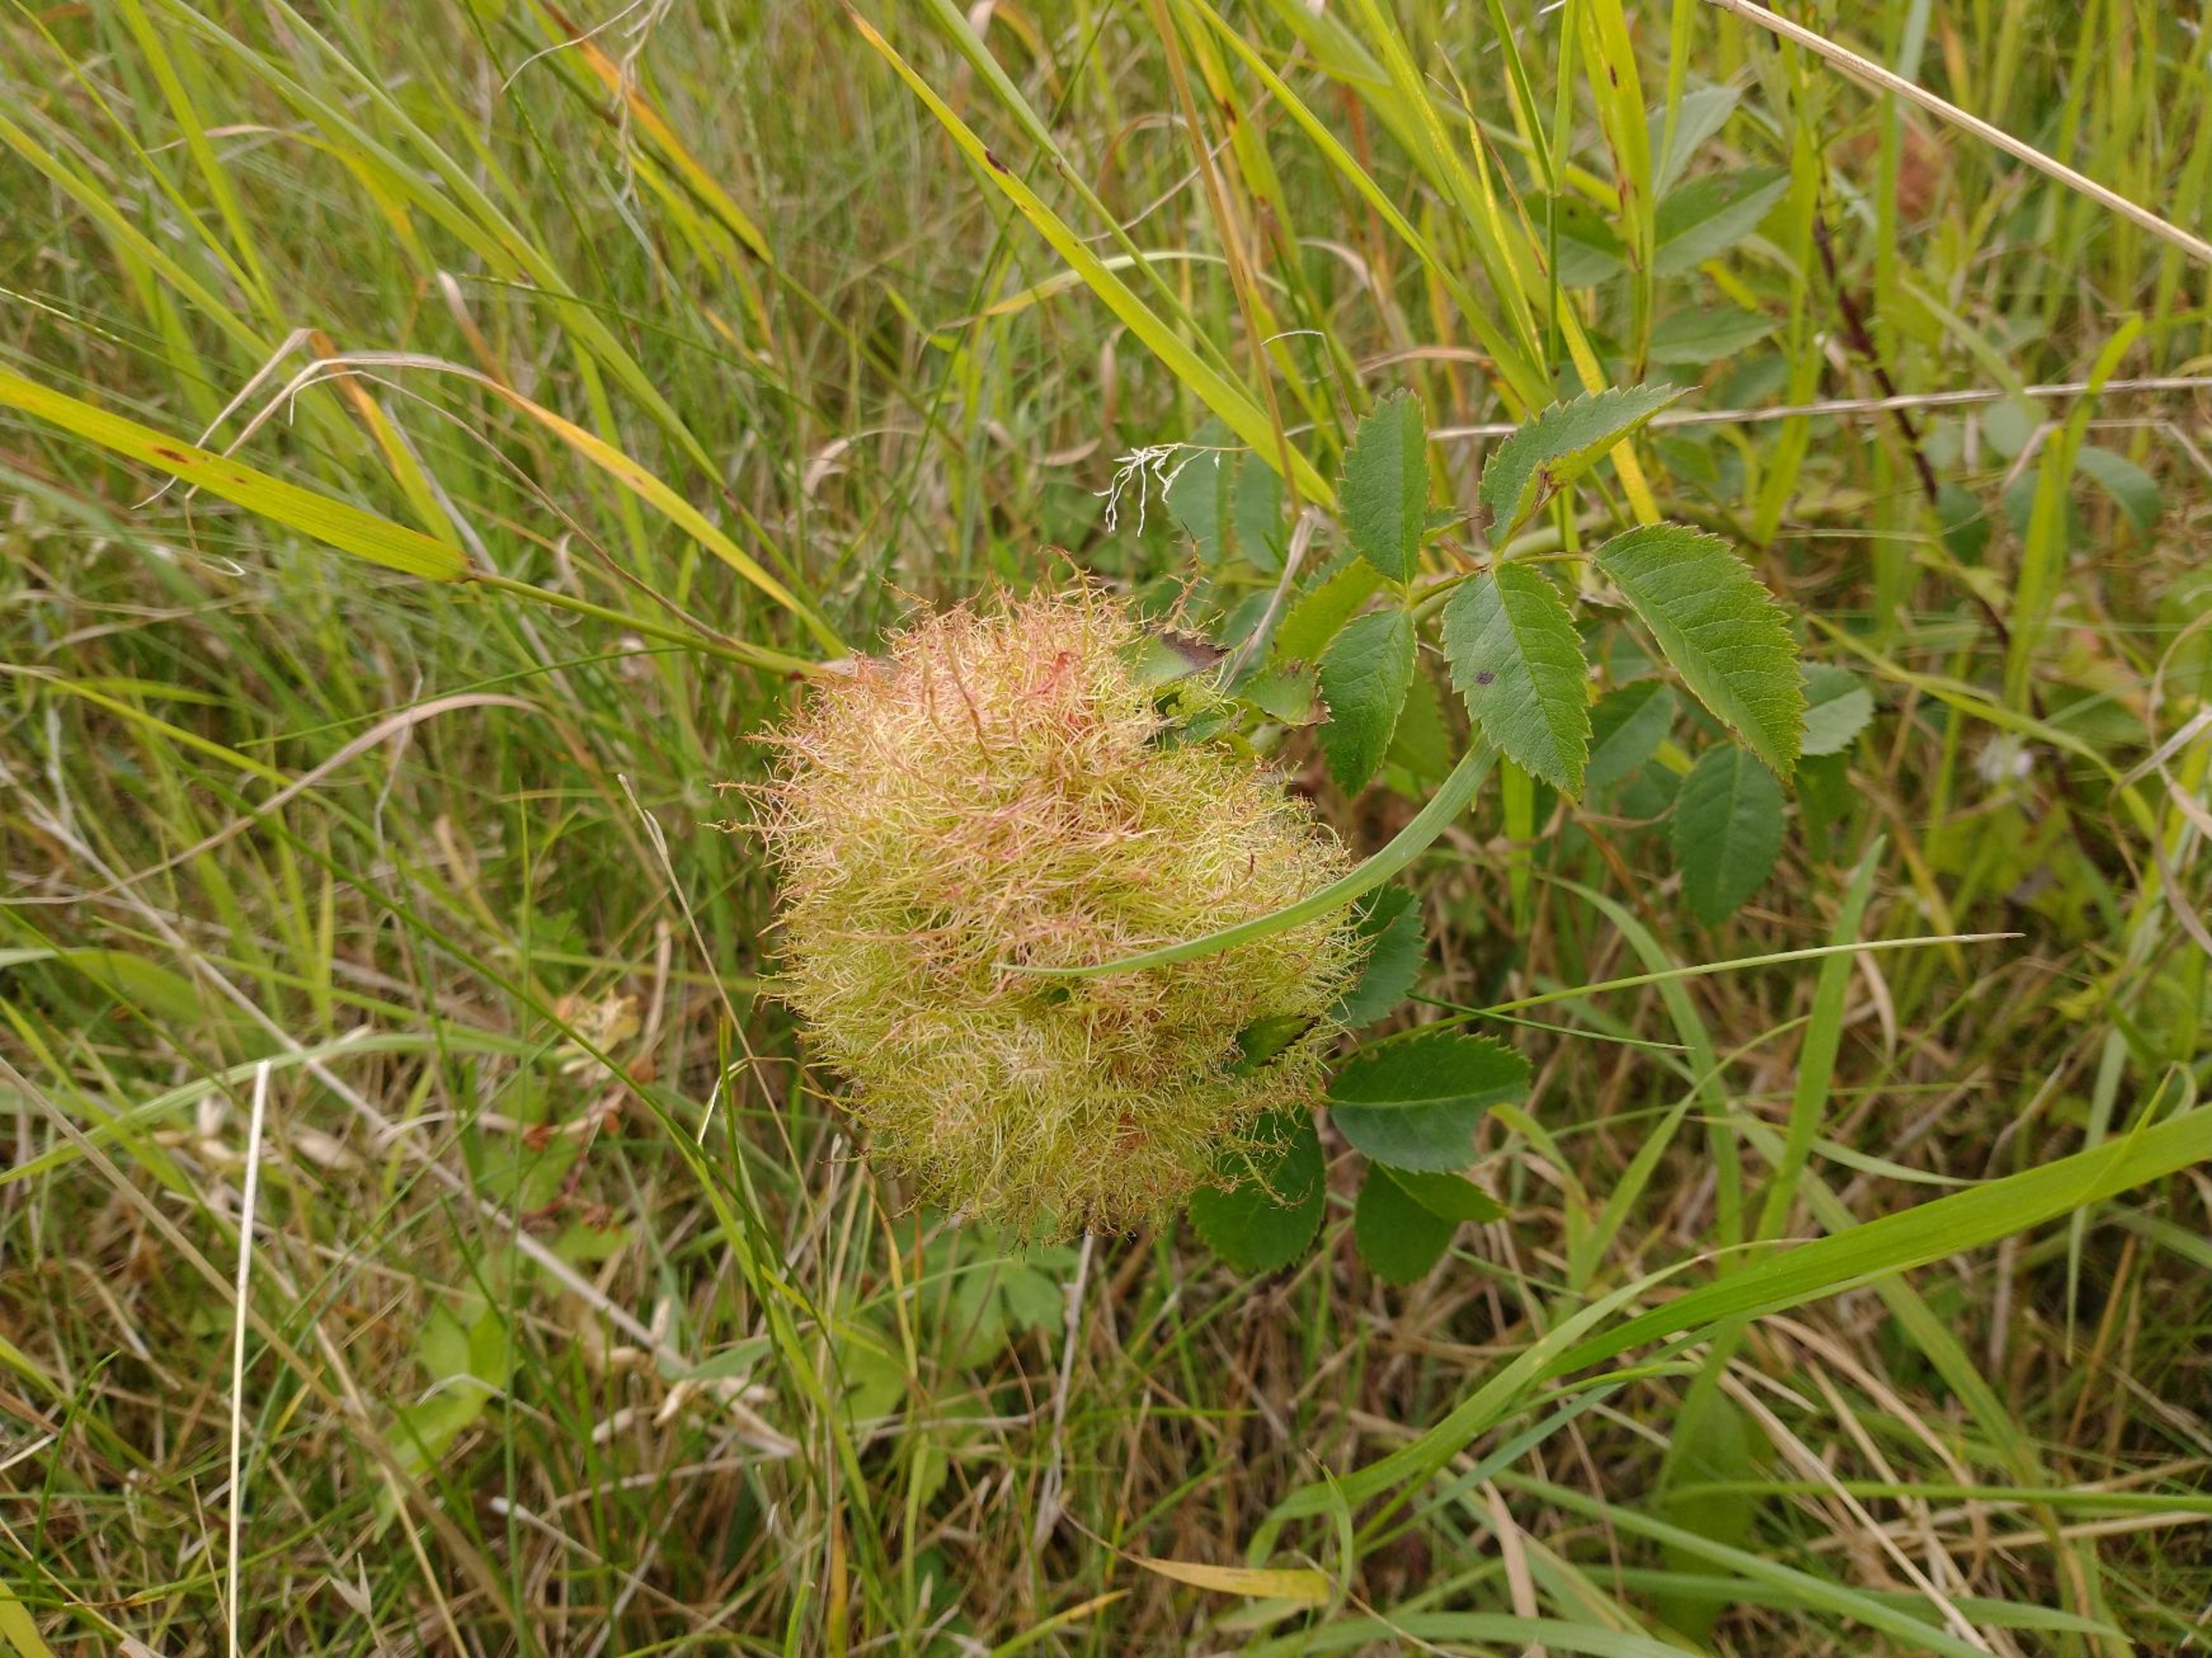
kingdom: Animalia
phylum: Arthropoda
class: Insecta
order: Hymenoptera
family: Cynipidae
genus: Diplolepis
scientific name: Diplolepis rosae
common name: Bedeguargalhveps
